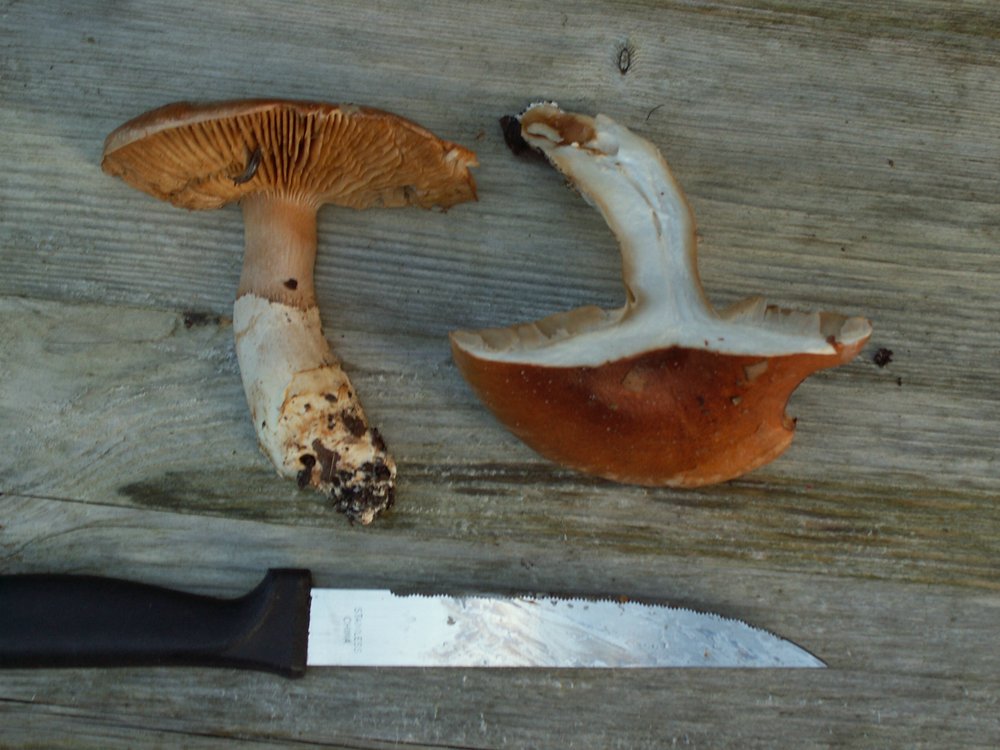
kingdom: Fungi
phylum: Basidiomycota
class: Agaricomycetes
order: Agaricales
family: Cortinariaceae
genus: Phlegmacium
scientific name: Phlegmacium vulpinum
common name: ringbæltet slørhat
